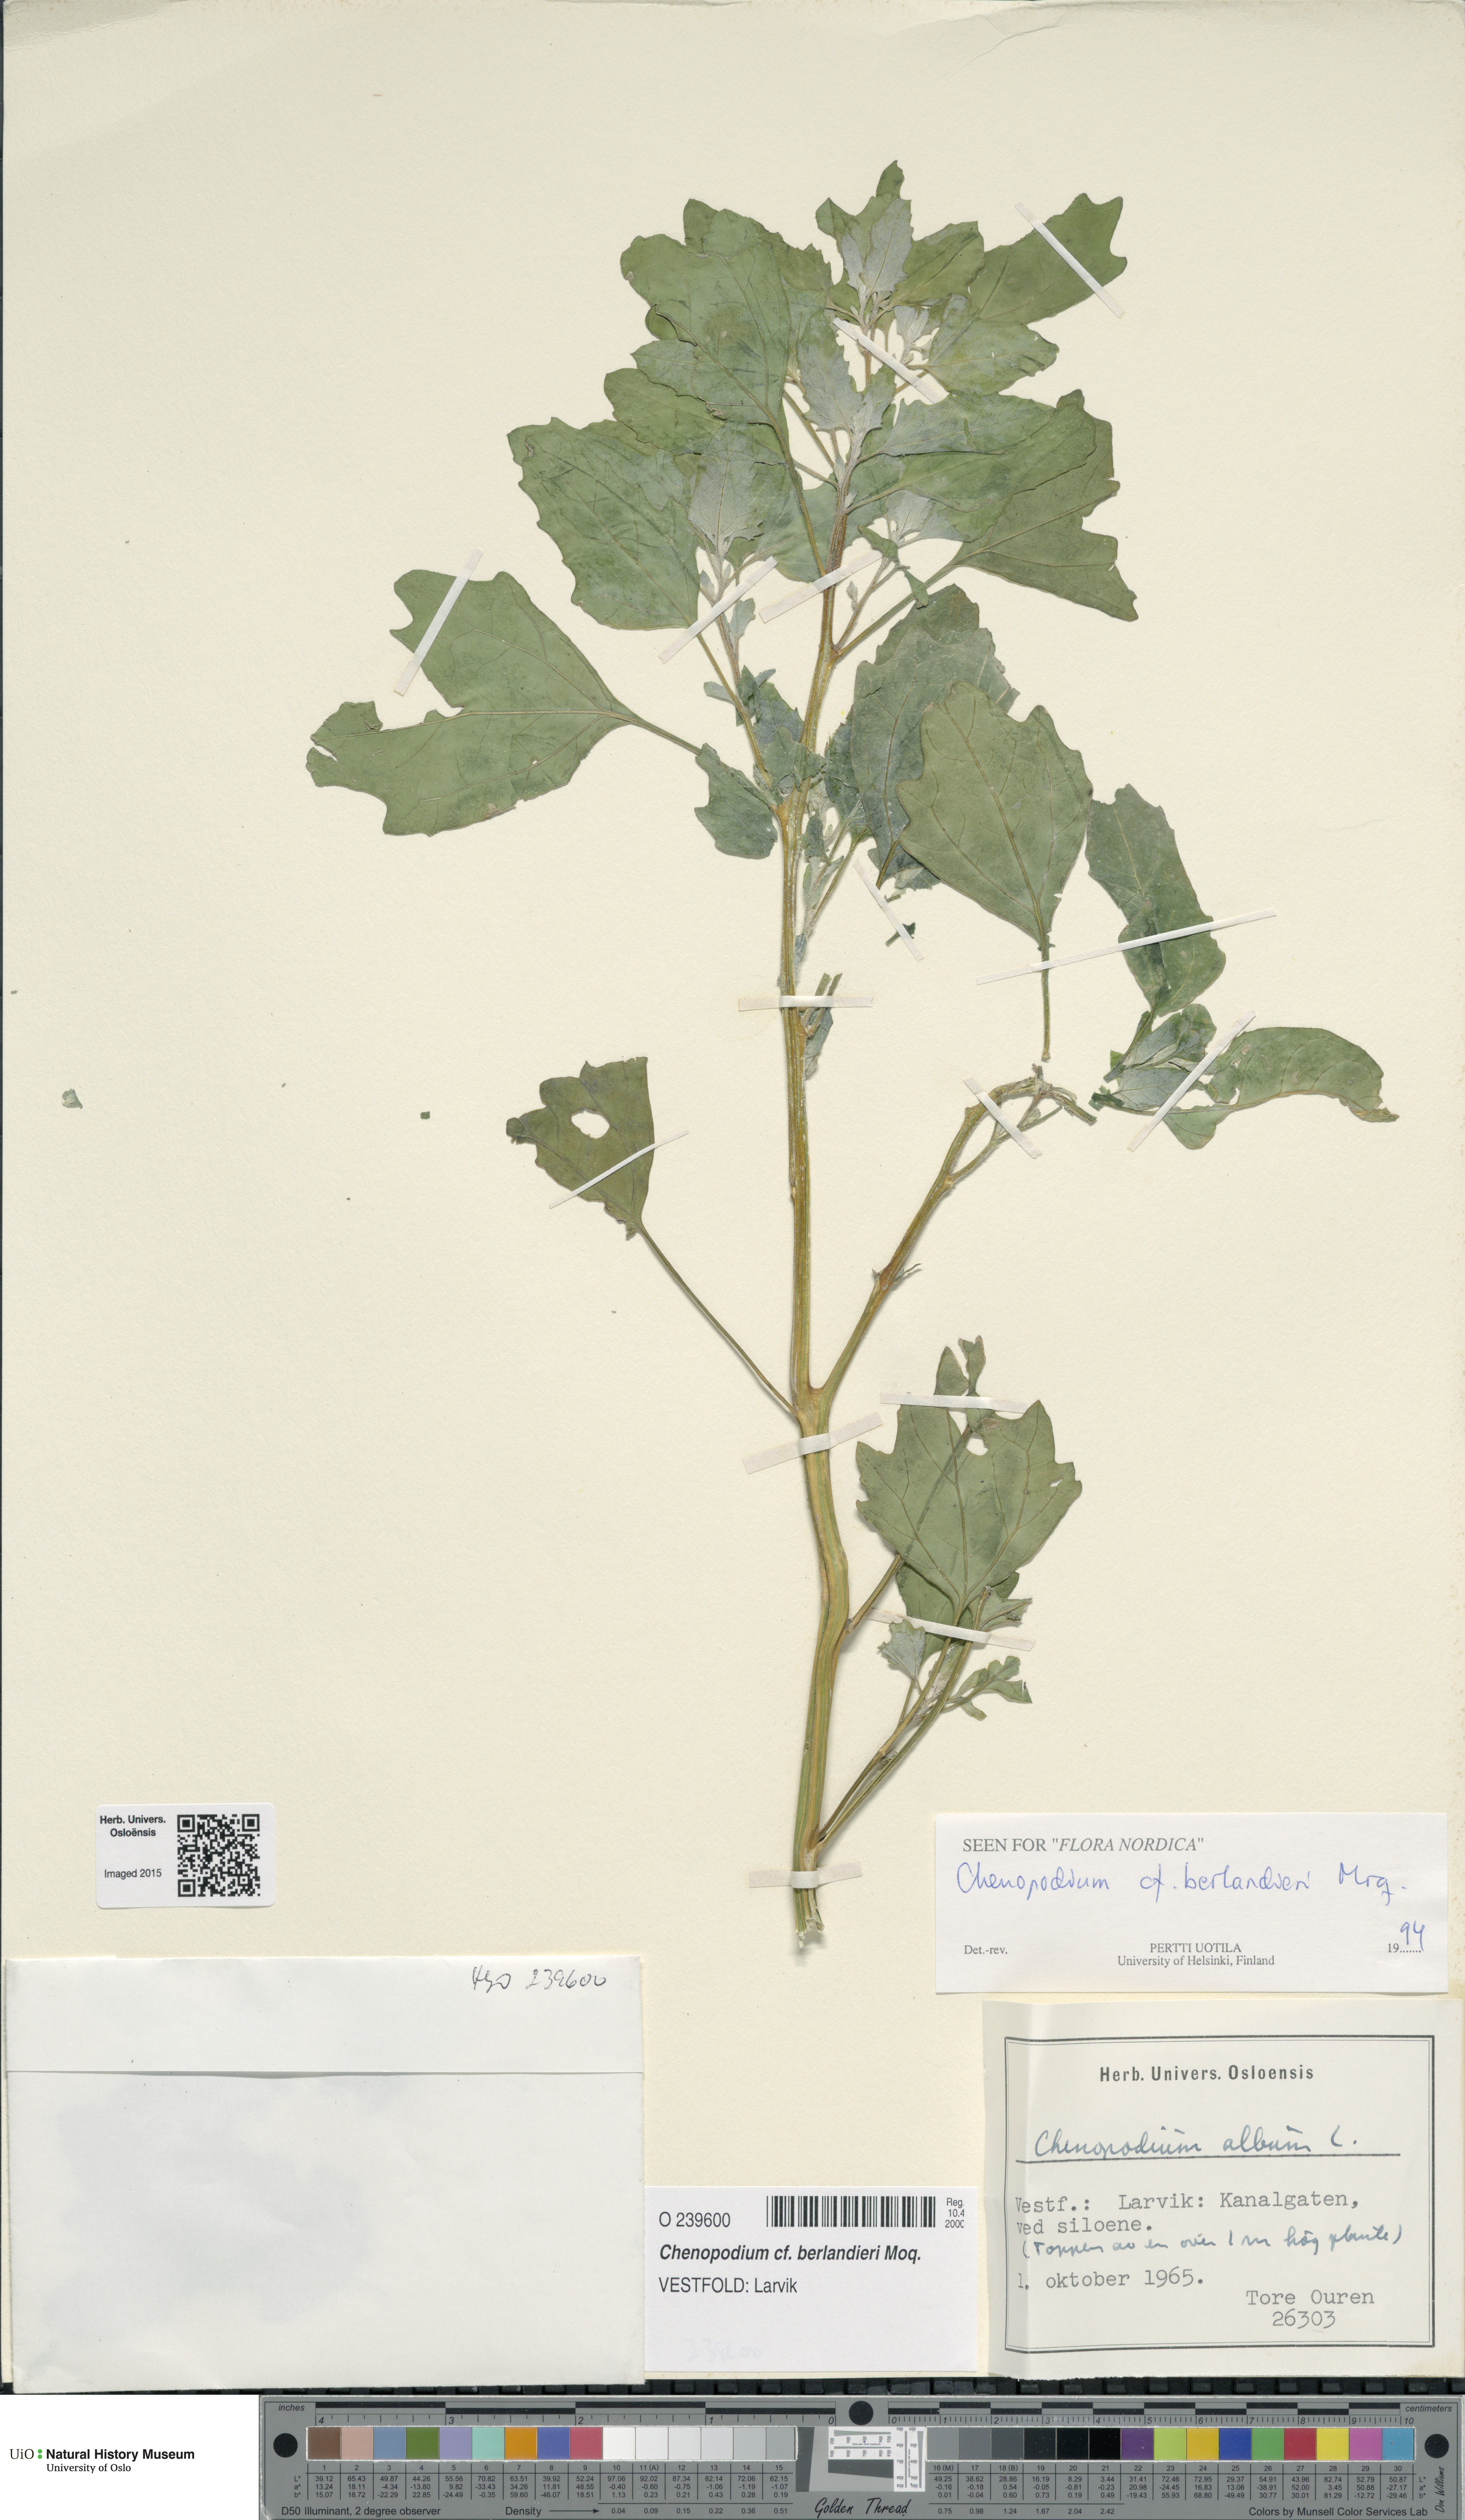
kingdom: Plantae
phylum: Tracheophyta
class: Magnoliopsida
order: Caryophyllales
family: Amaranthaceae
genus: Chenopodium
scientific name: Chenopodium berlandieri
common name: Pit-seed goosefoot
